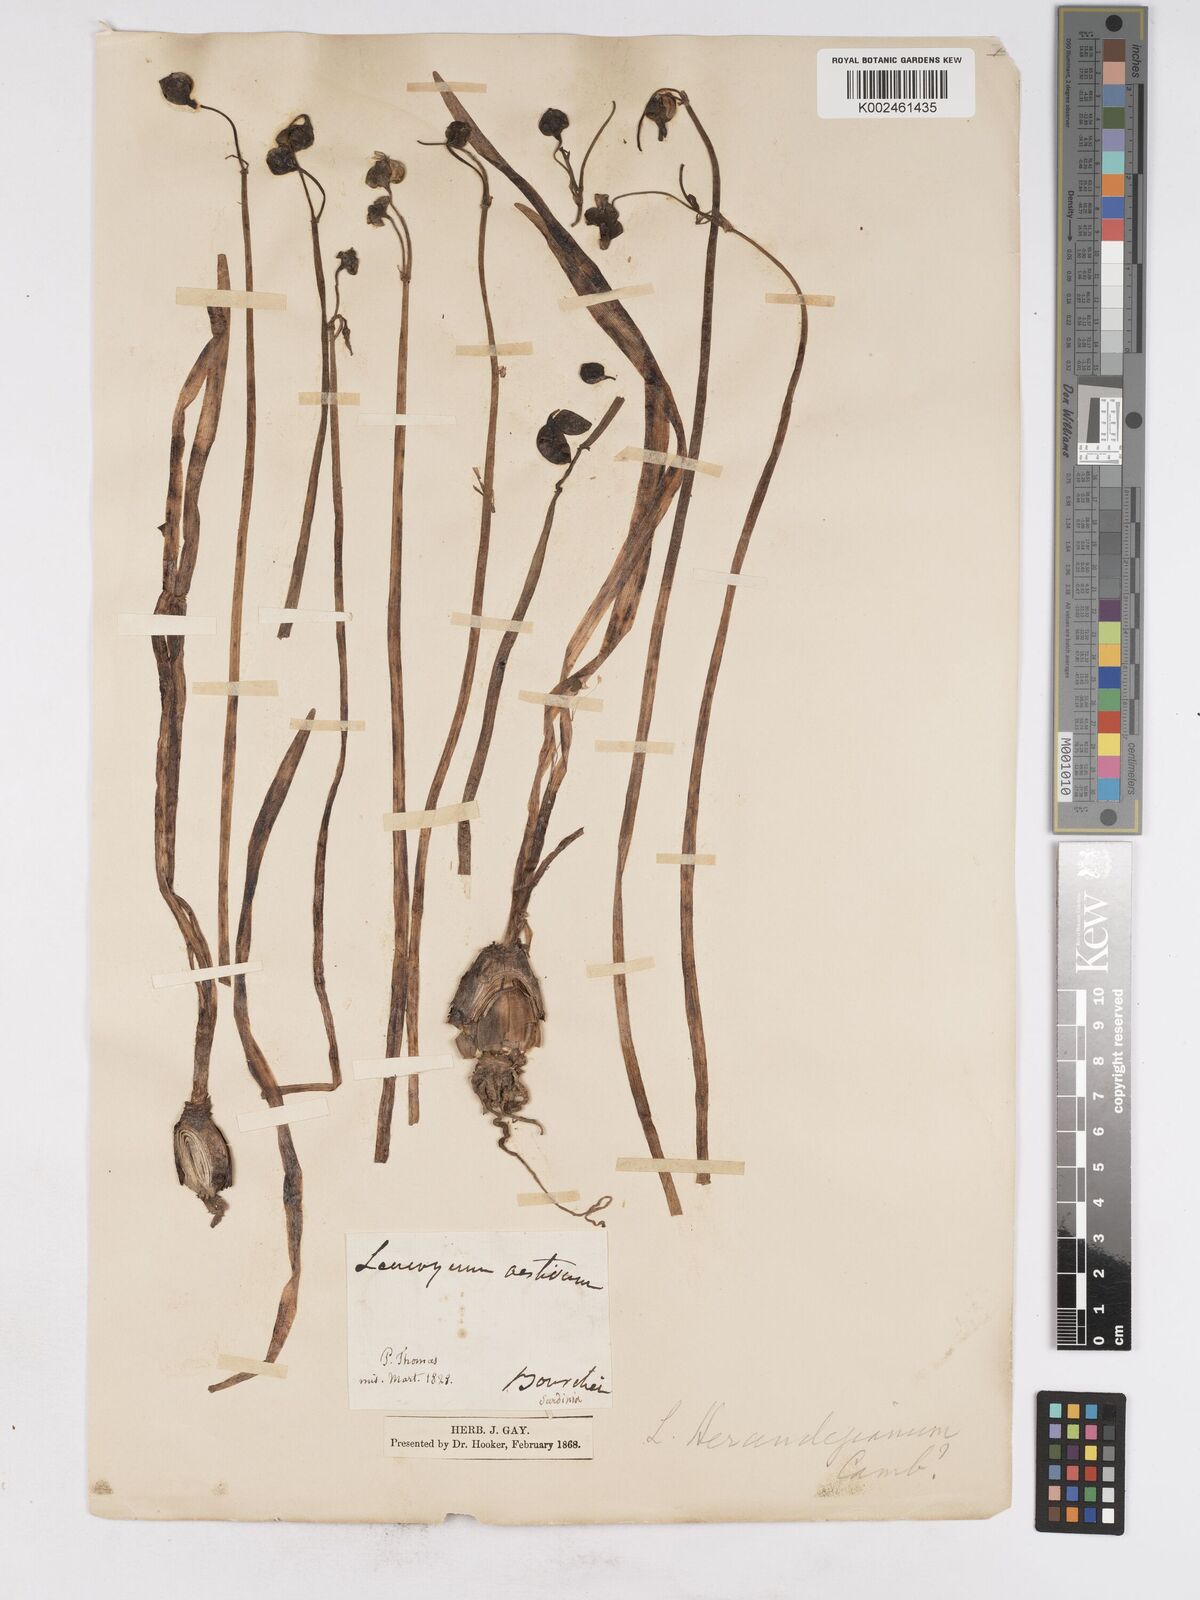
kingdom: Plantae
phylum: Tracheophyta
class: Liliopsida
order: Asparagales
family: Amaryllidaceae
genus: Leucojum
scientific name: Leucojum aestivum
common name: Summer snowflake
